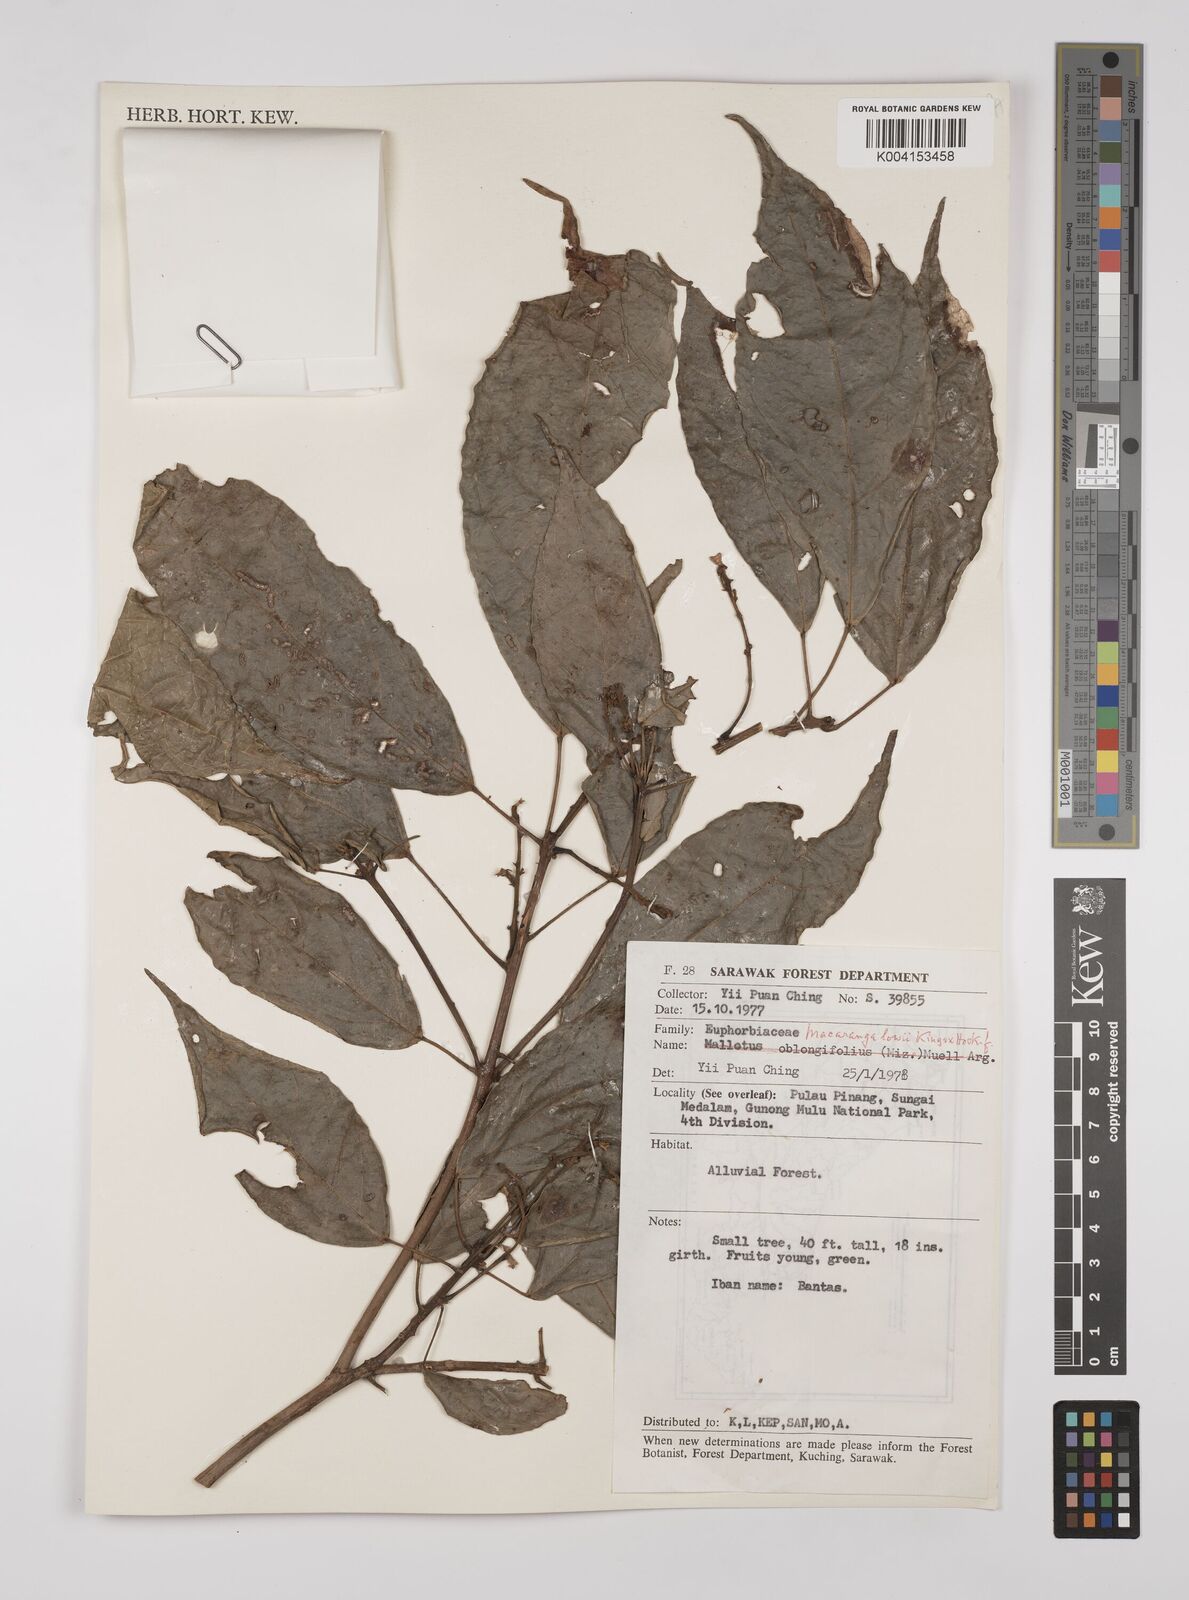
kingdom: Plantae
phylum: Tracheophyta
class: Magnoliopsida
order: Malpighiales
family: Euphorbiaceae
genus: Macaranga
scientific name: Macaranga lowii
